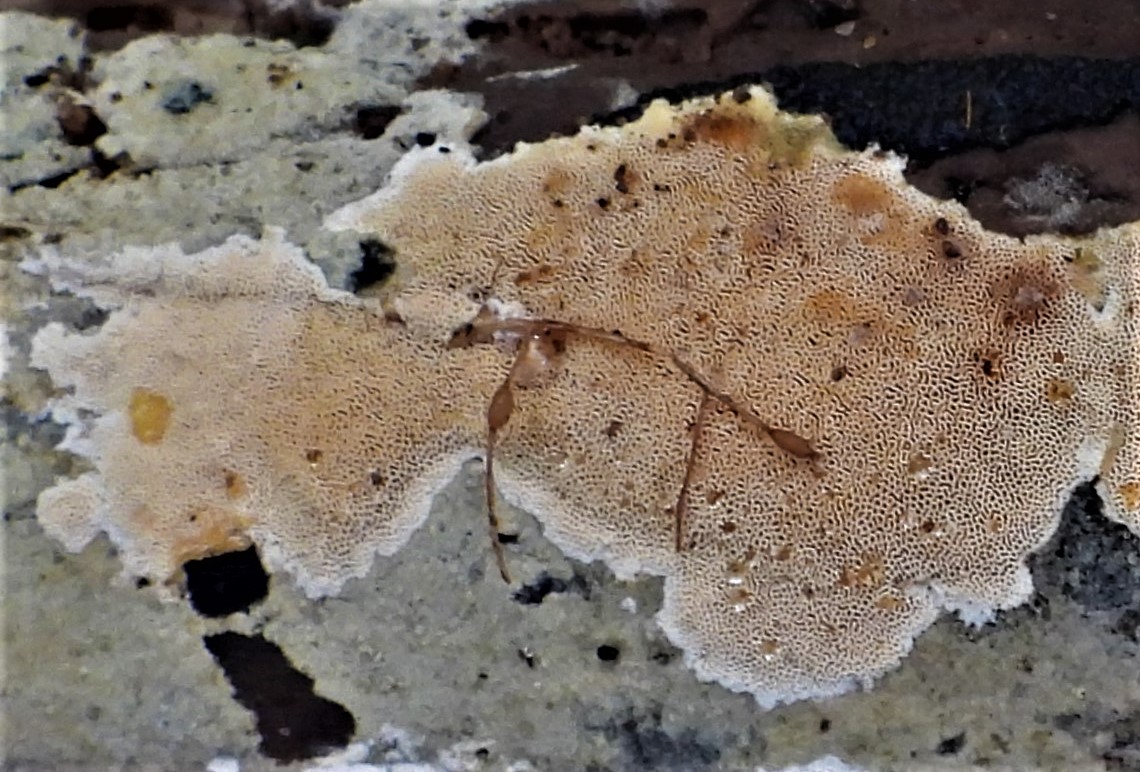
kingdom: Fungi
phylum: Basidiomycota
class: Agaricomycetes
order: Polyporales
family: Steccherinaceae
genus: Junghuhnia
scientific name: Junghuhnia nitida
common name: almindelig skønporesvamp
